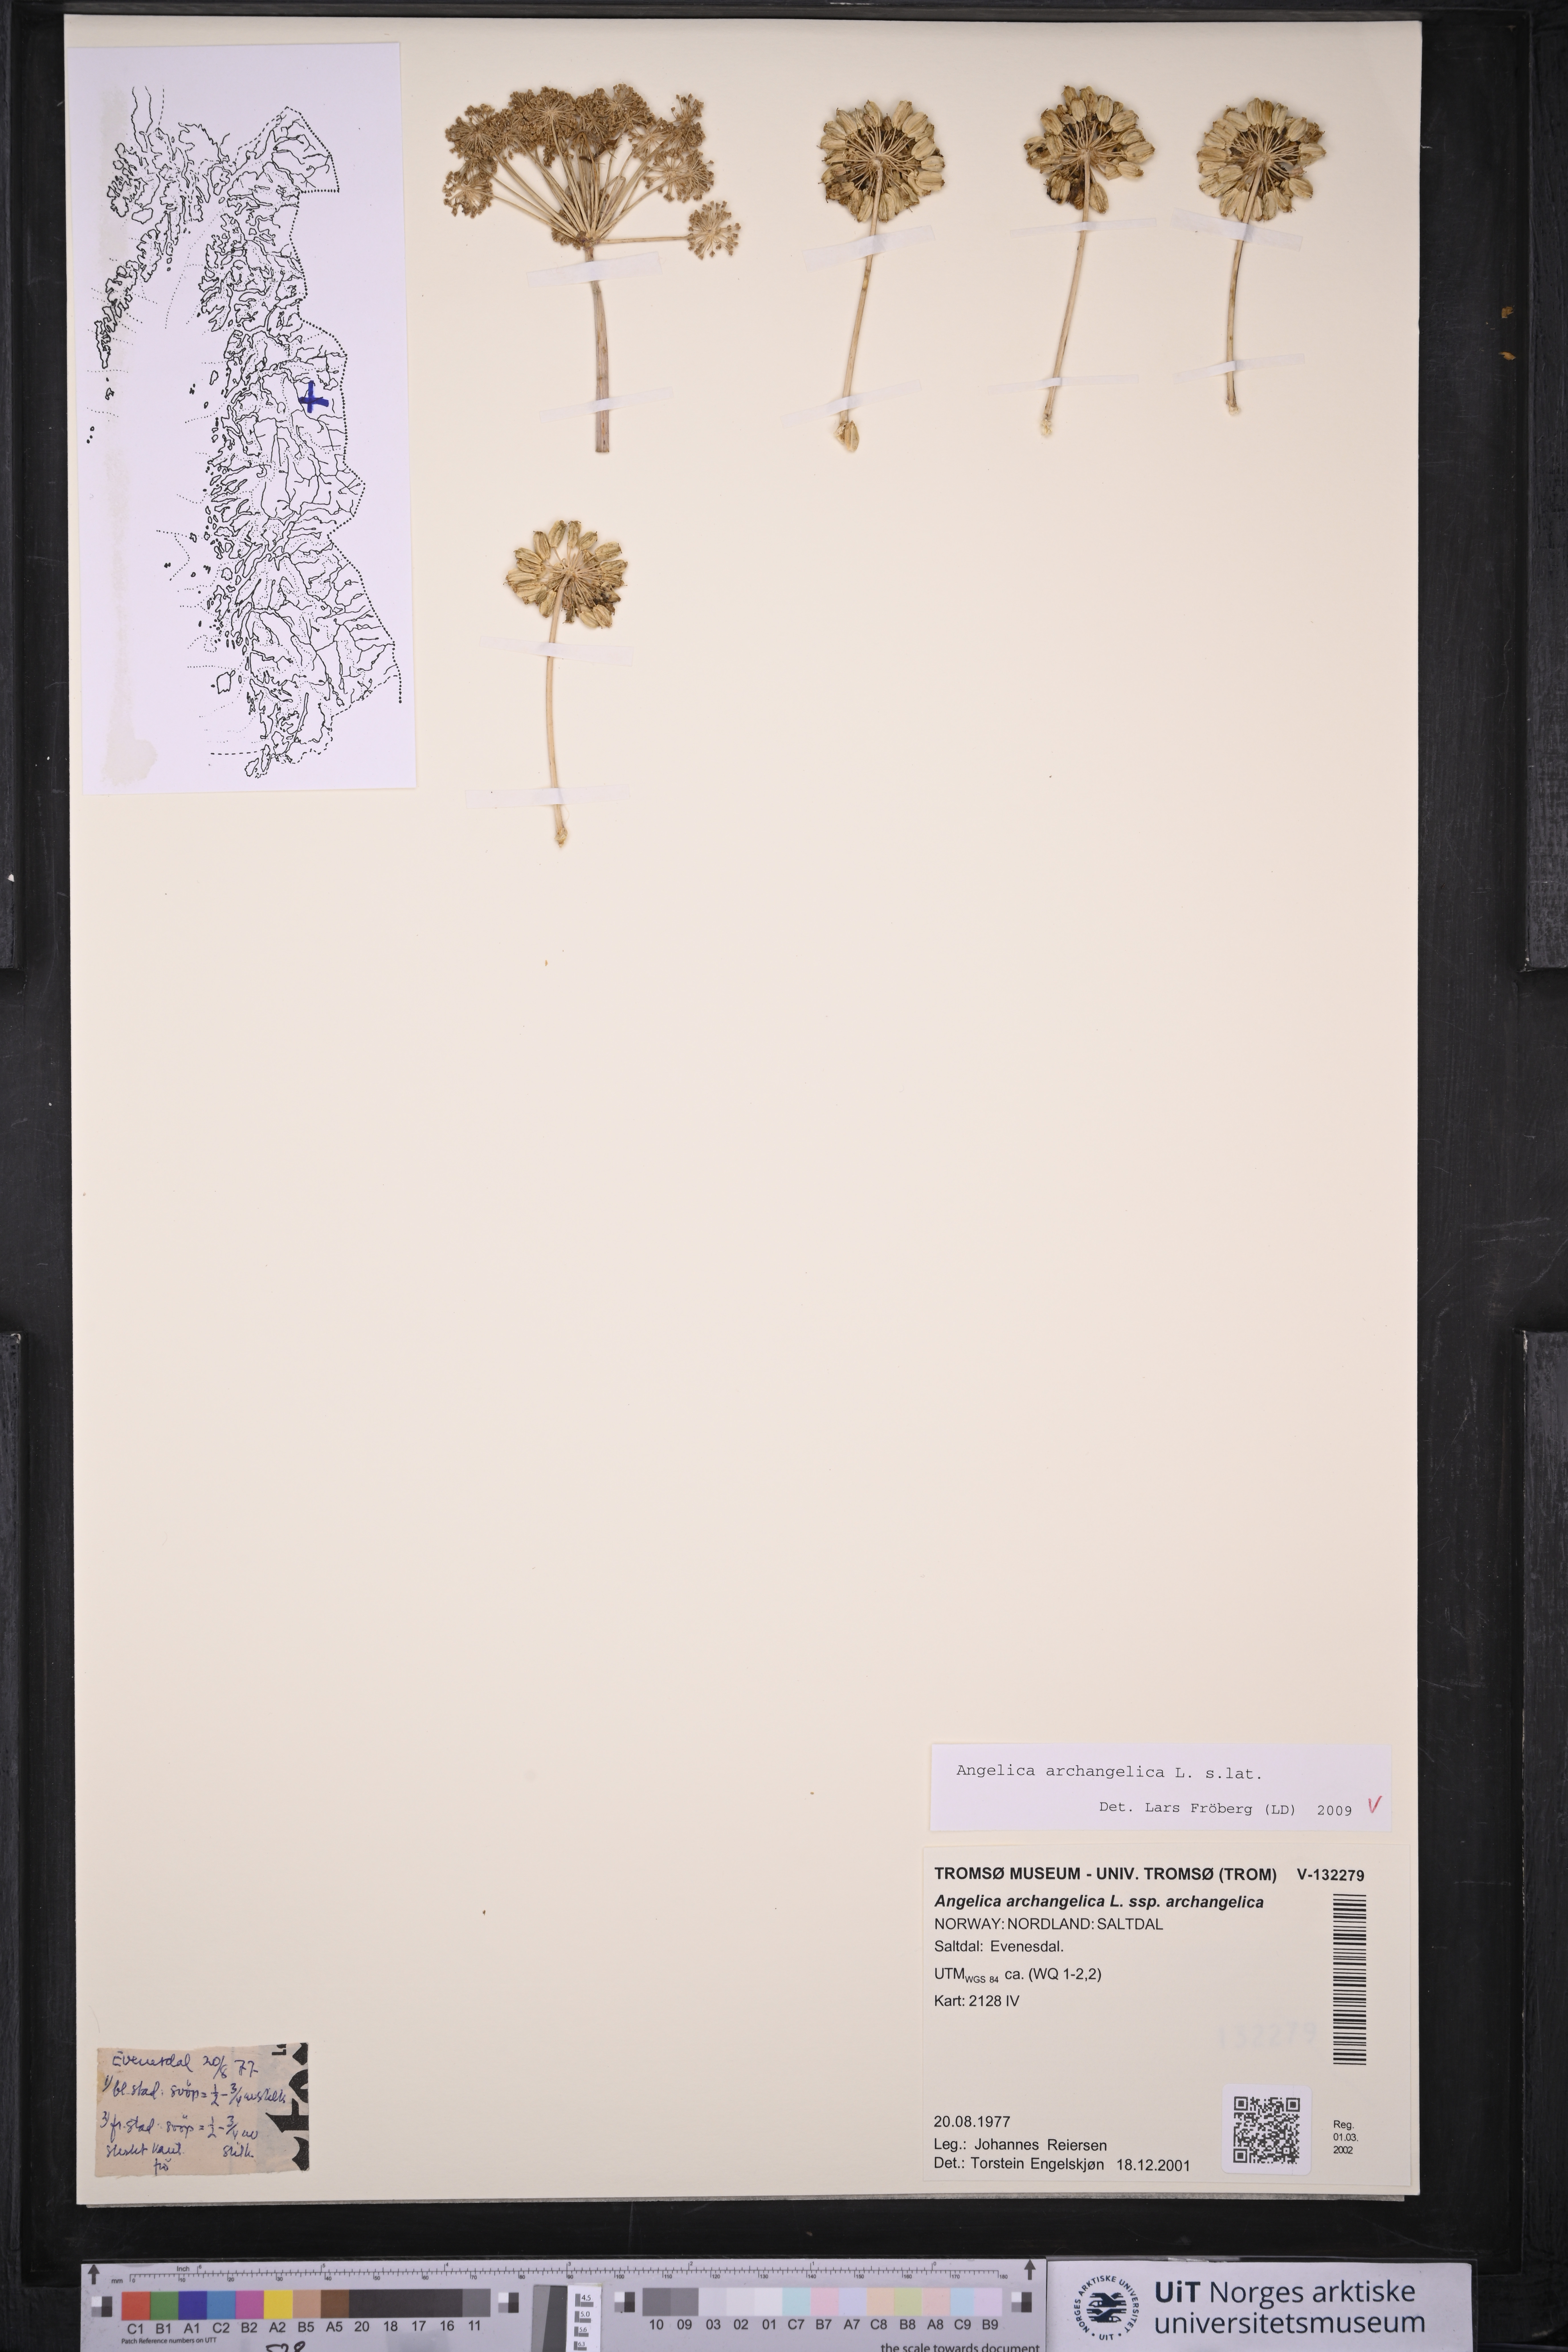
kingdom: Plantae
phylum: Tracheophyta
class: Magnoliopsida
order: Apiales
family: Apiaceae
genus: Angelica
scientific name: Angelica archangelica
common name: Garden angelica
